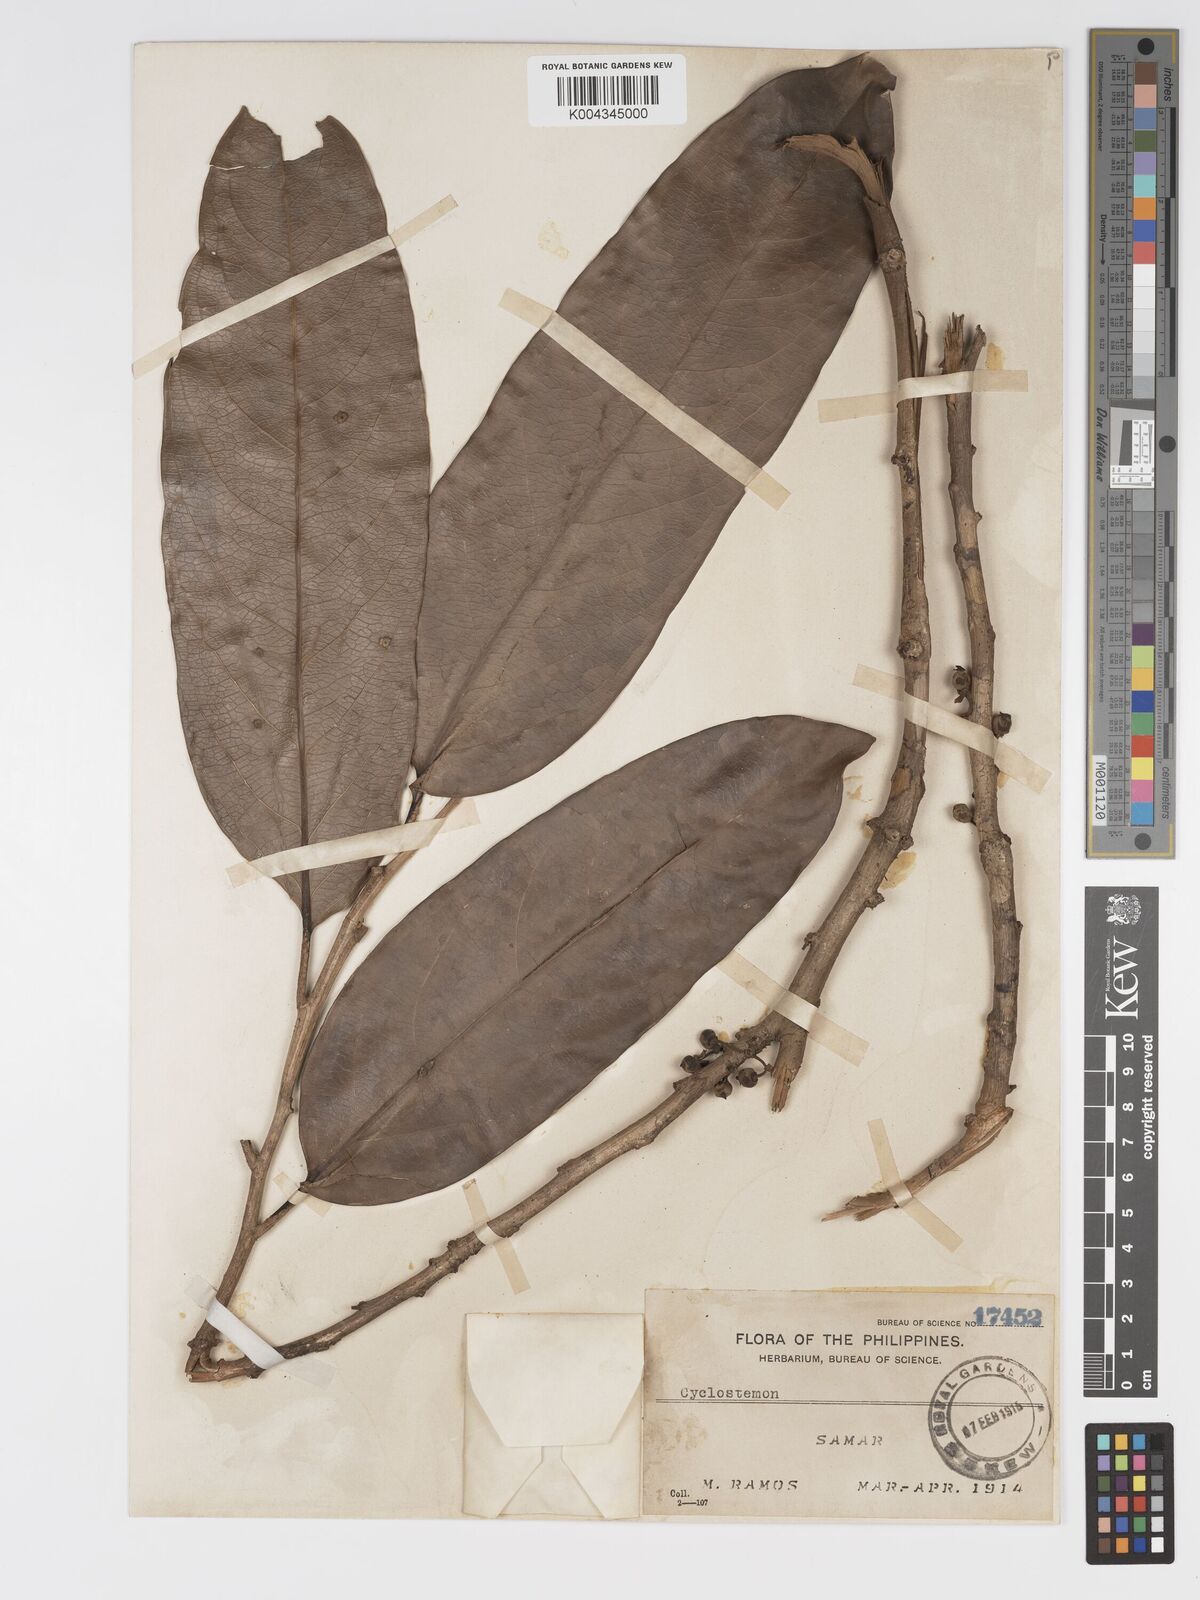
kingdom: Plantae
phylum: Tracheophyta
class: Magnoliopsida
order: Malpighiales
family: Putranjivaceae
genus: Drypetes
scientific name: Drypetes grandifolia
